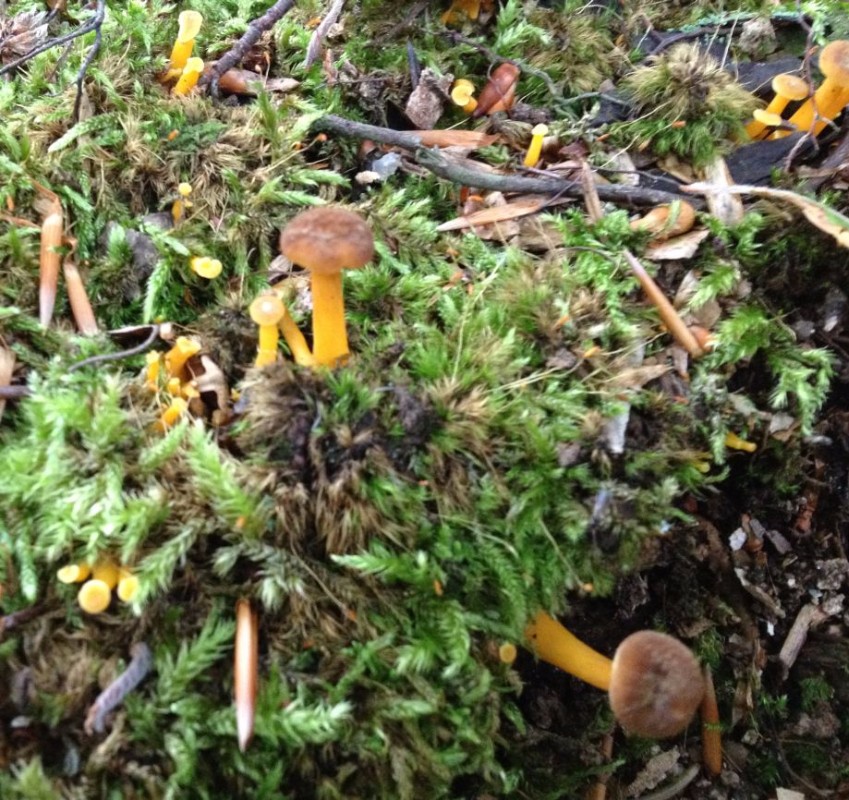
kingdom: Fungi
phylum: Basidiomycota
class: Agaricomycetes
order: Cantharellales
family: Hydnaceae
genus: Craterellus
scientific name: Craterellus tubaeformis
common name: tragt-kantarel
